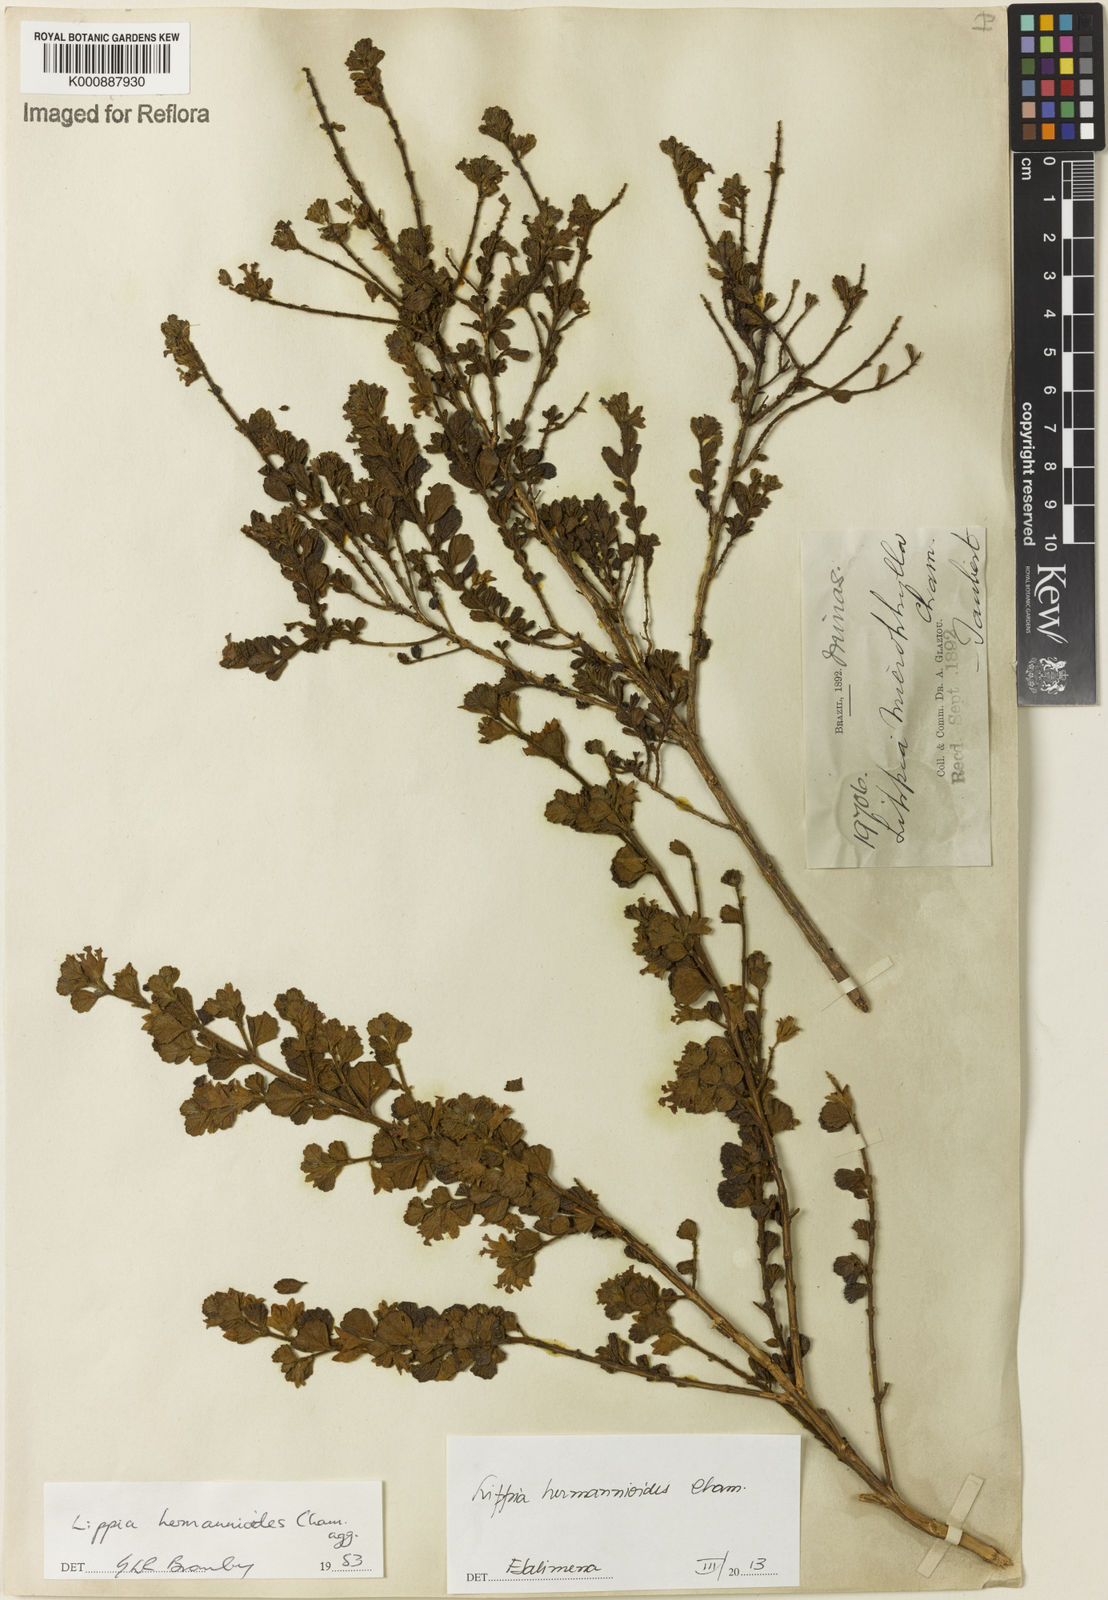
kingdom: Plantae
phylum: Tracheophyta
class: Magnoliopsida
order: Lamiales
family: Verbenaceae
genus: Lippia
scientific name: Lippia hermannioides
